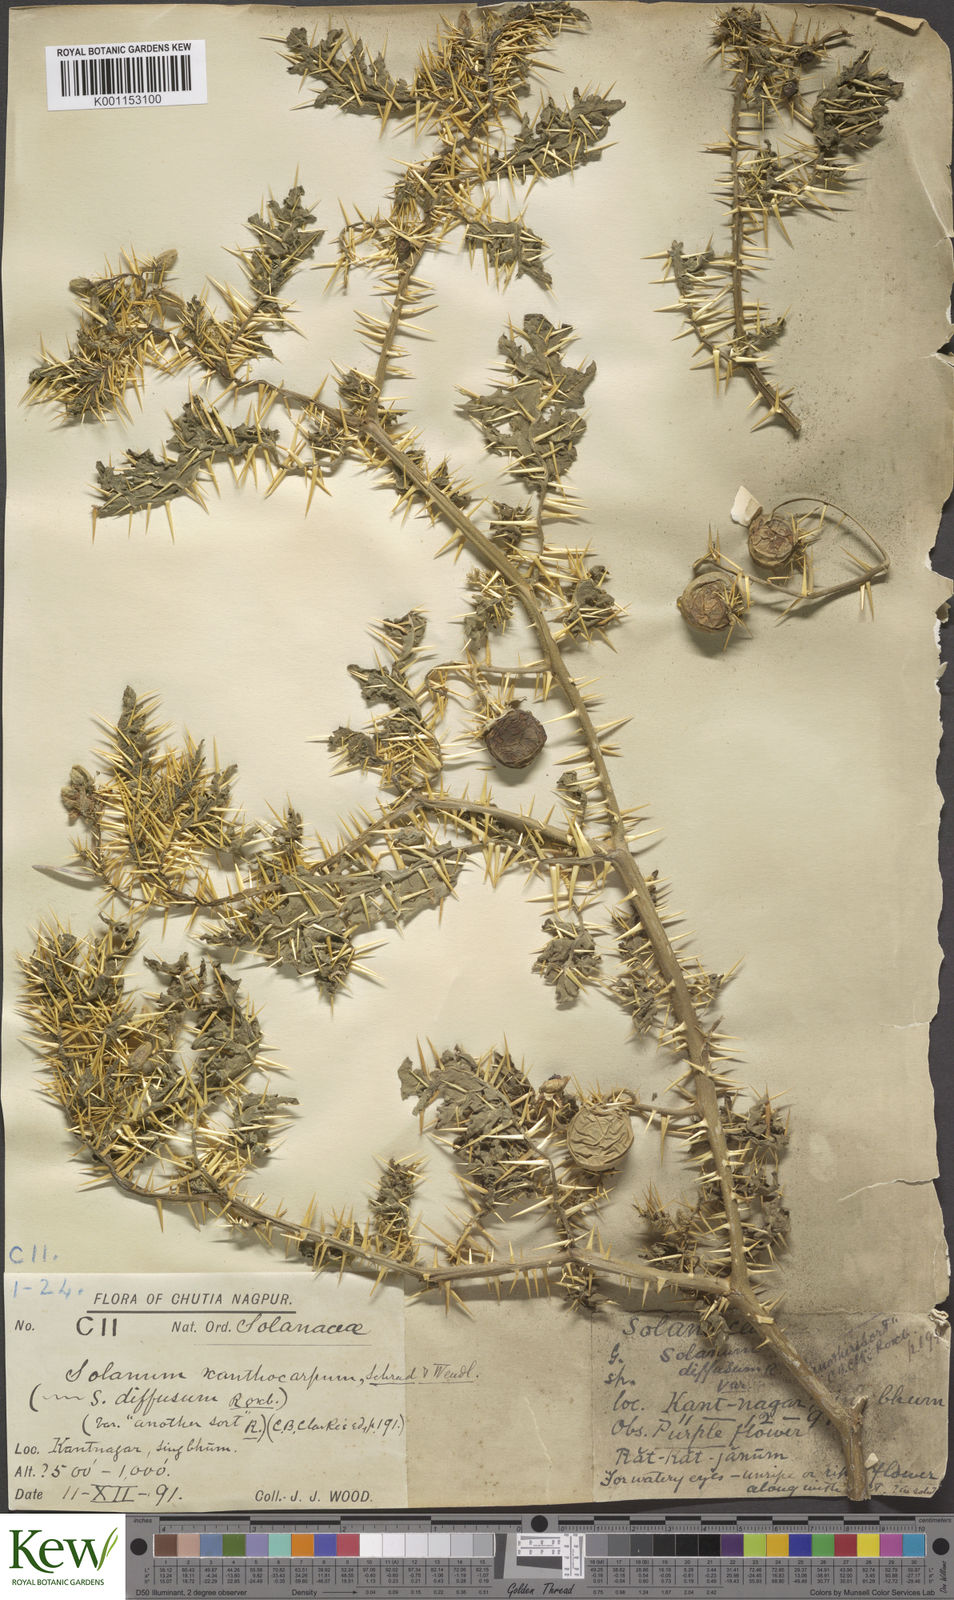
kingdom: Plantae
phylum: Tracheophyta
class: Magnoliopsida
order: Solanales
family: Solanaceae
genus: Solanum
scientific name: Solanum virginianum
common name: Surattense nightshade
